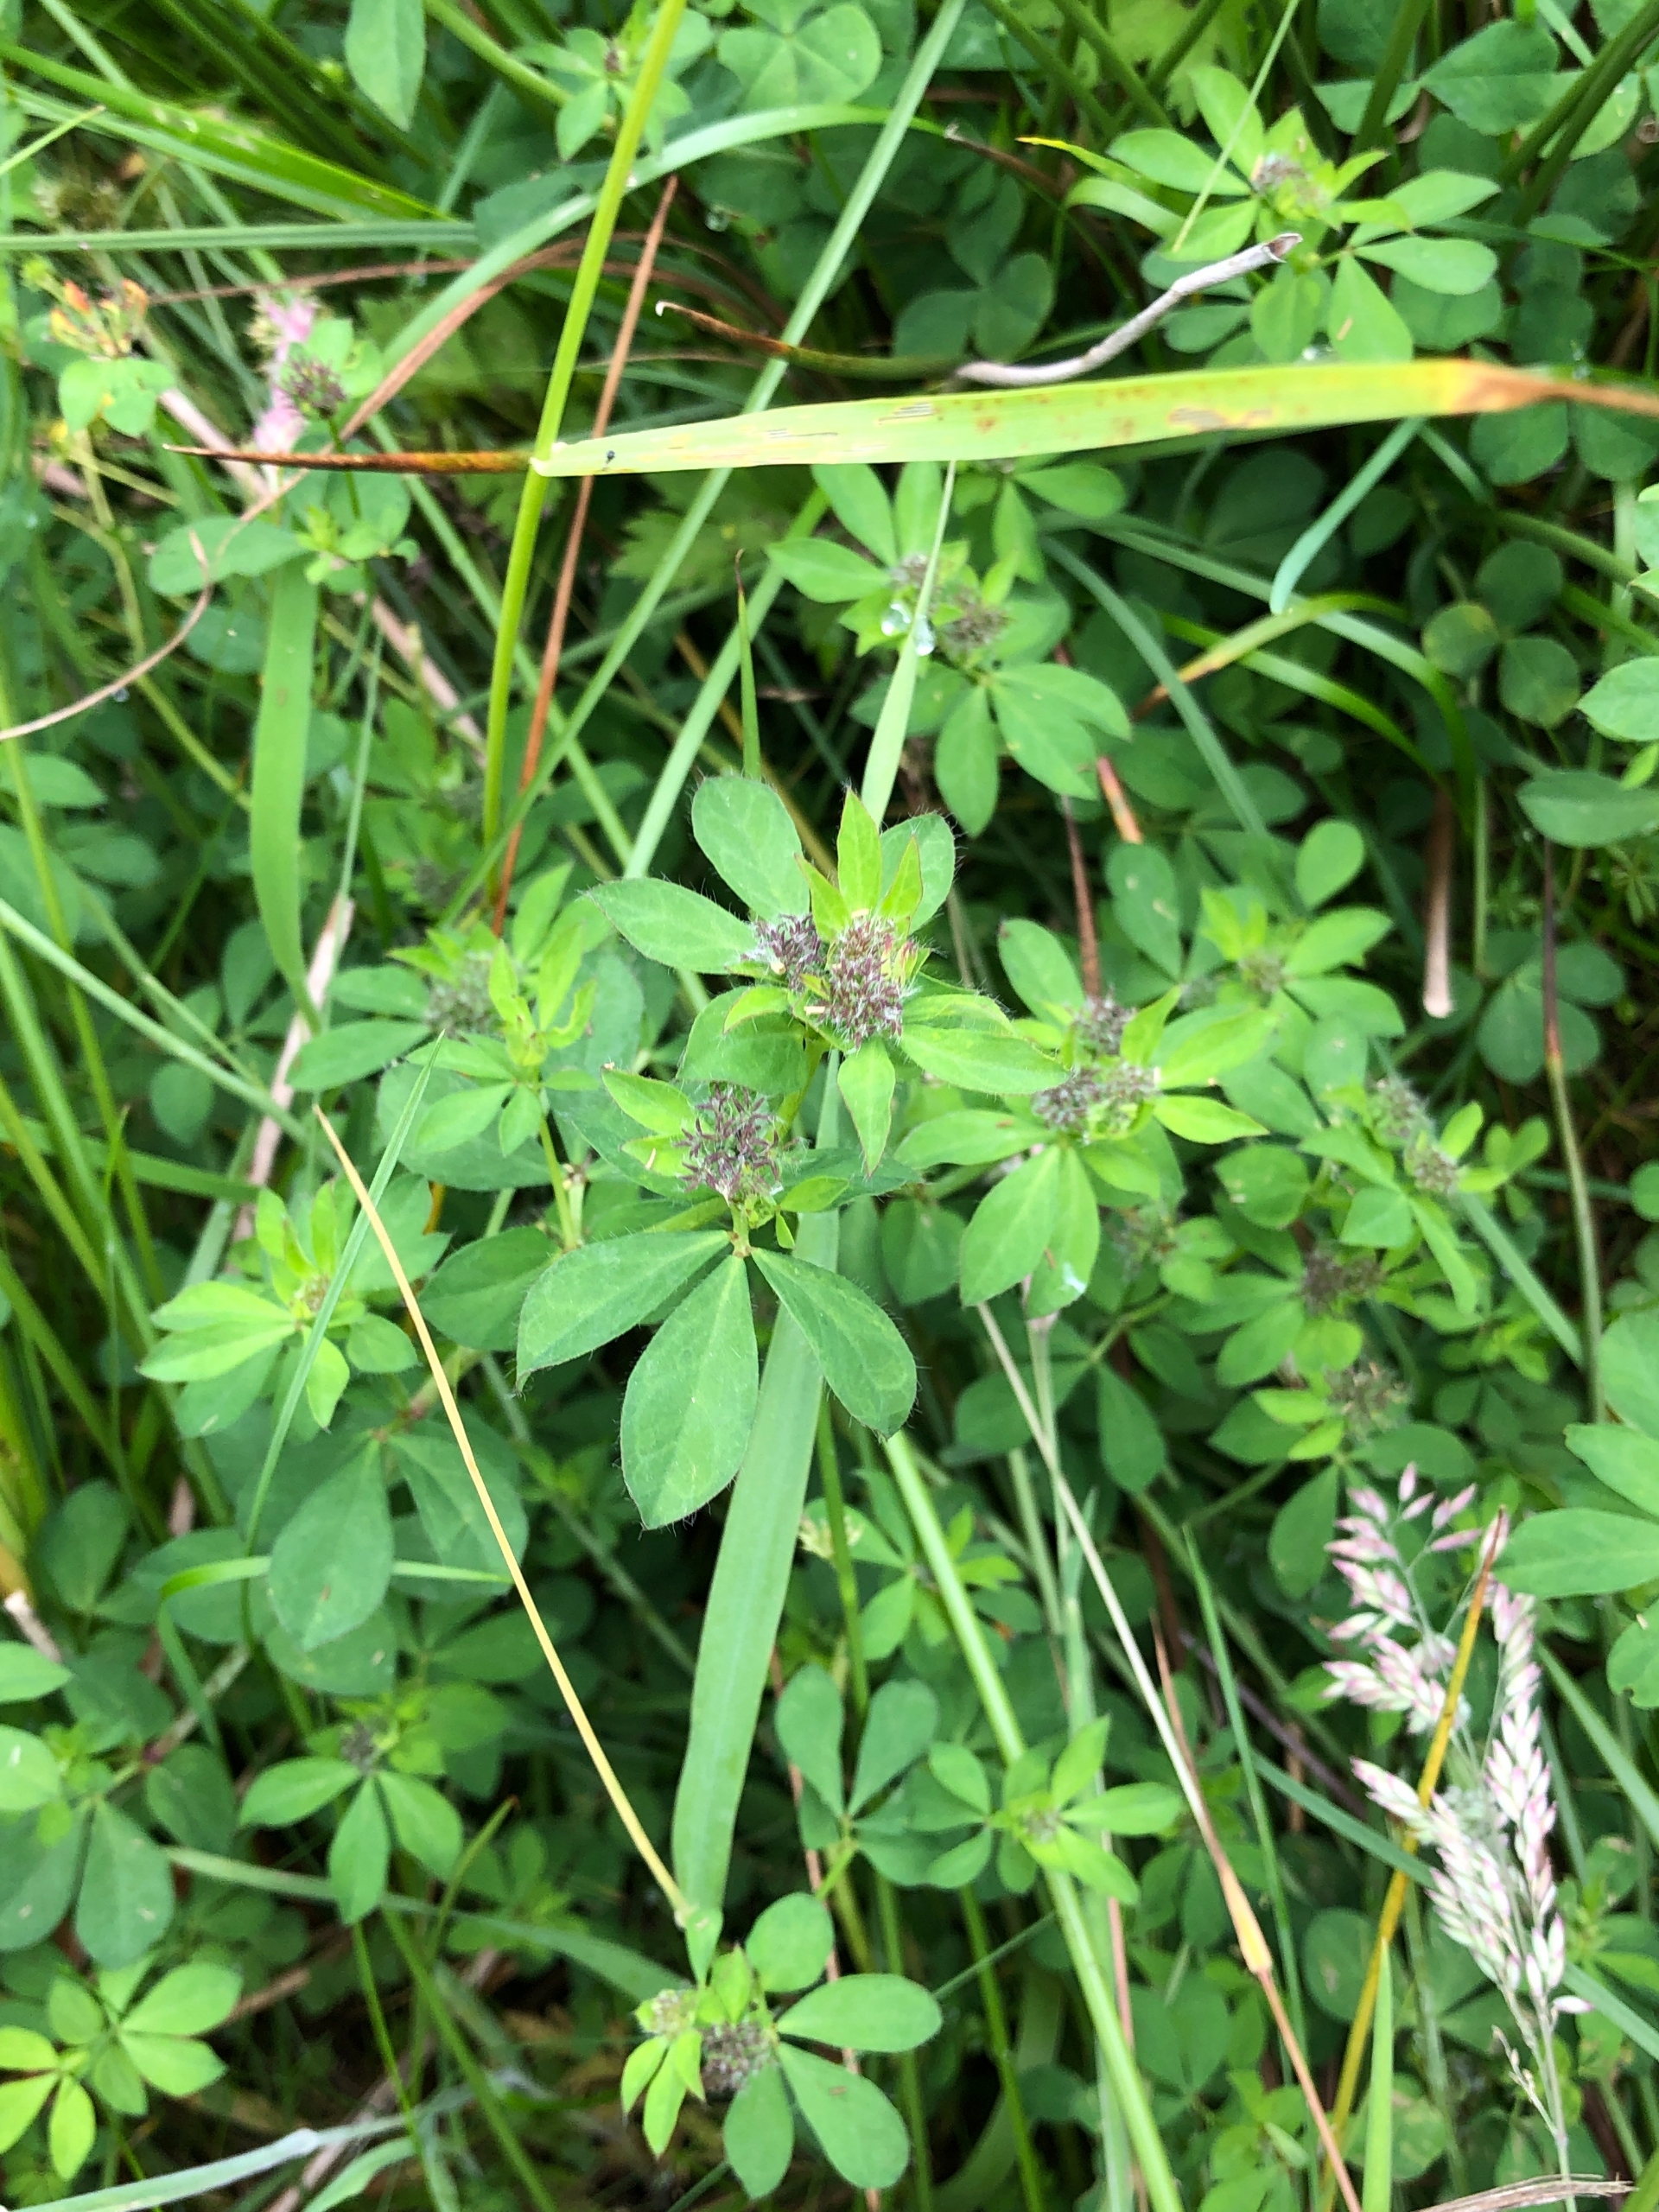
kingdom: Plantae
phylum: Tracheophyta
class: Magnoliopsida
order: Fabales
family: Fabaceae
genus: Lotus
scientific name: Lotus pedunculatus
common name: Sump-kællingetand
